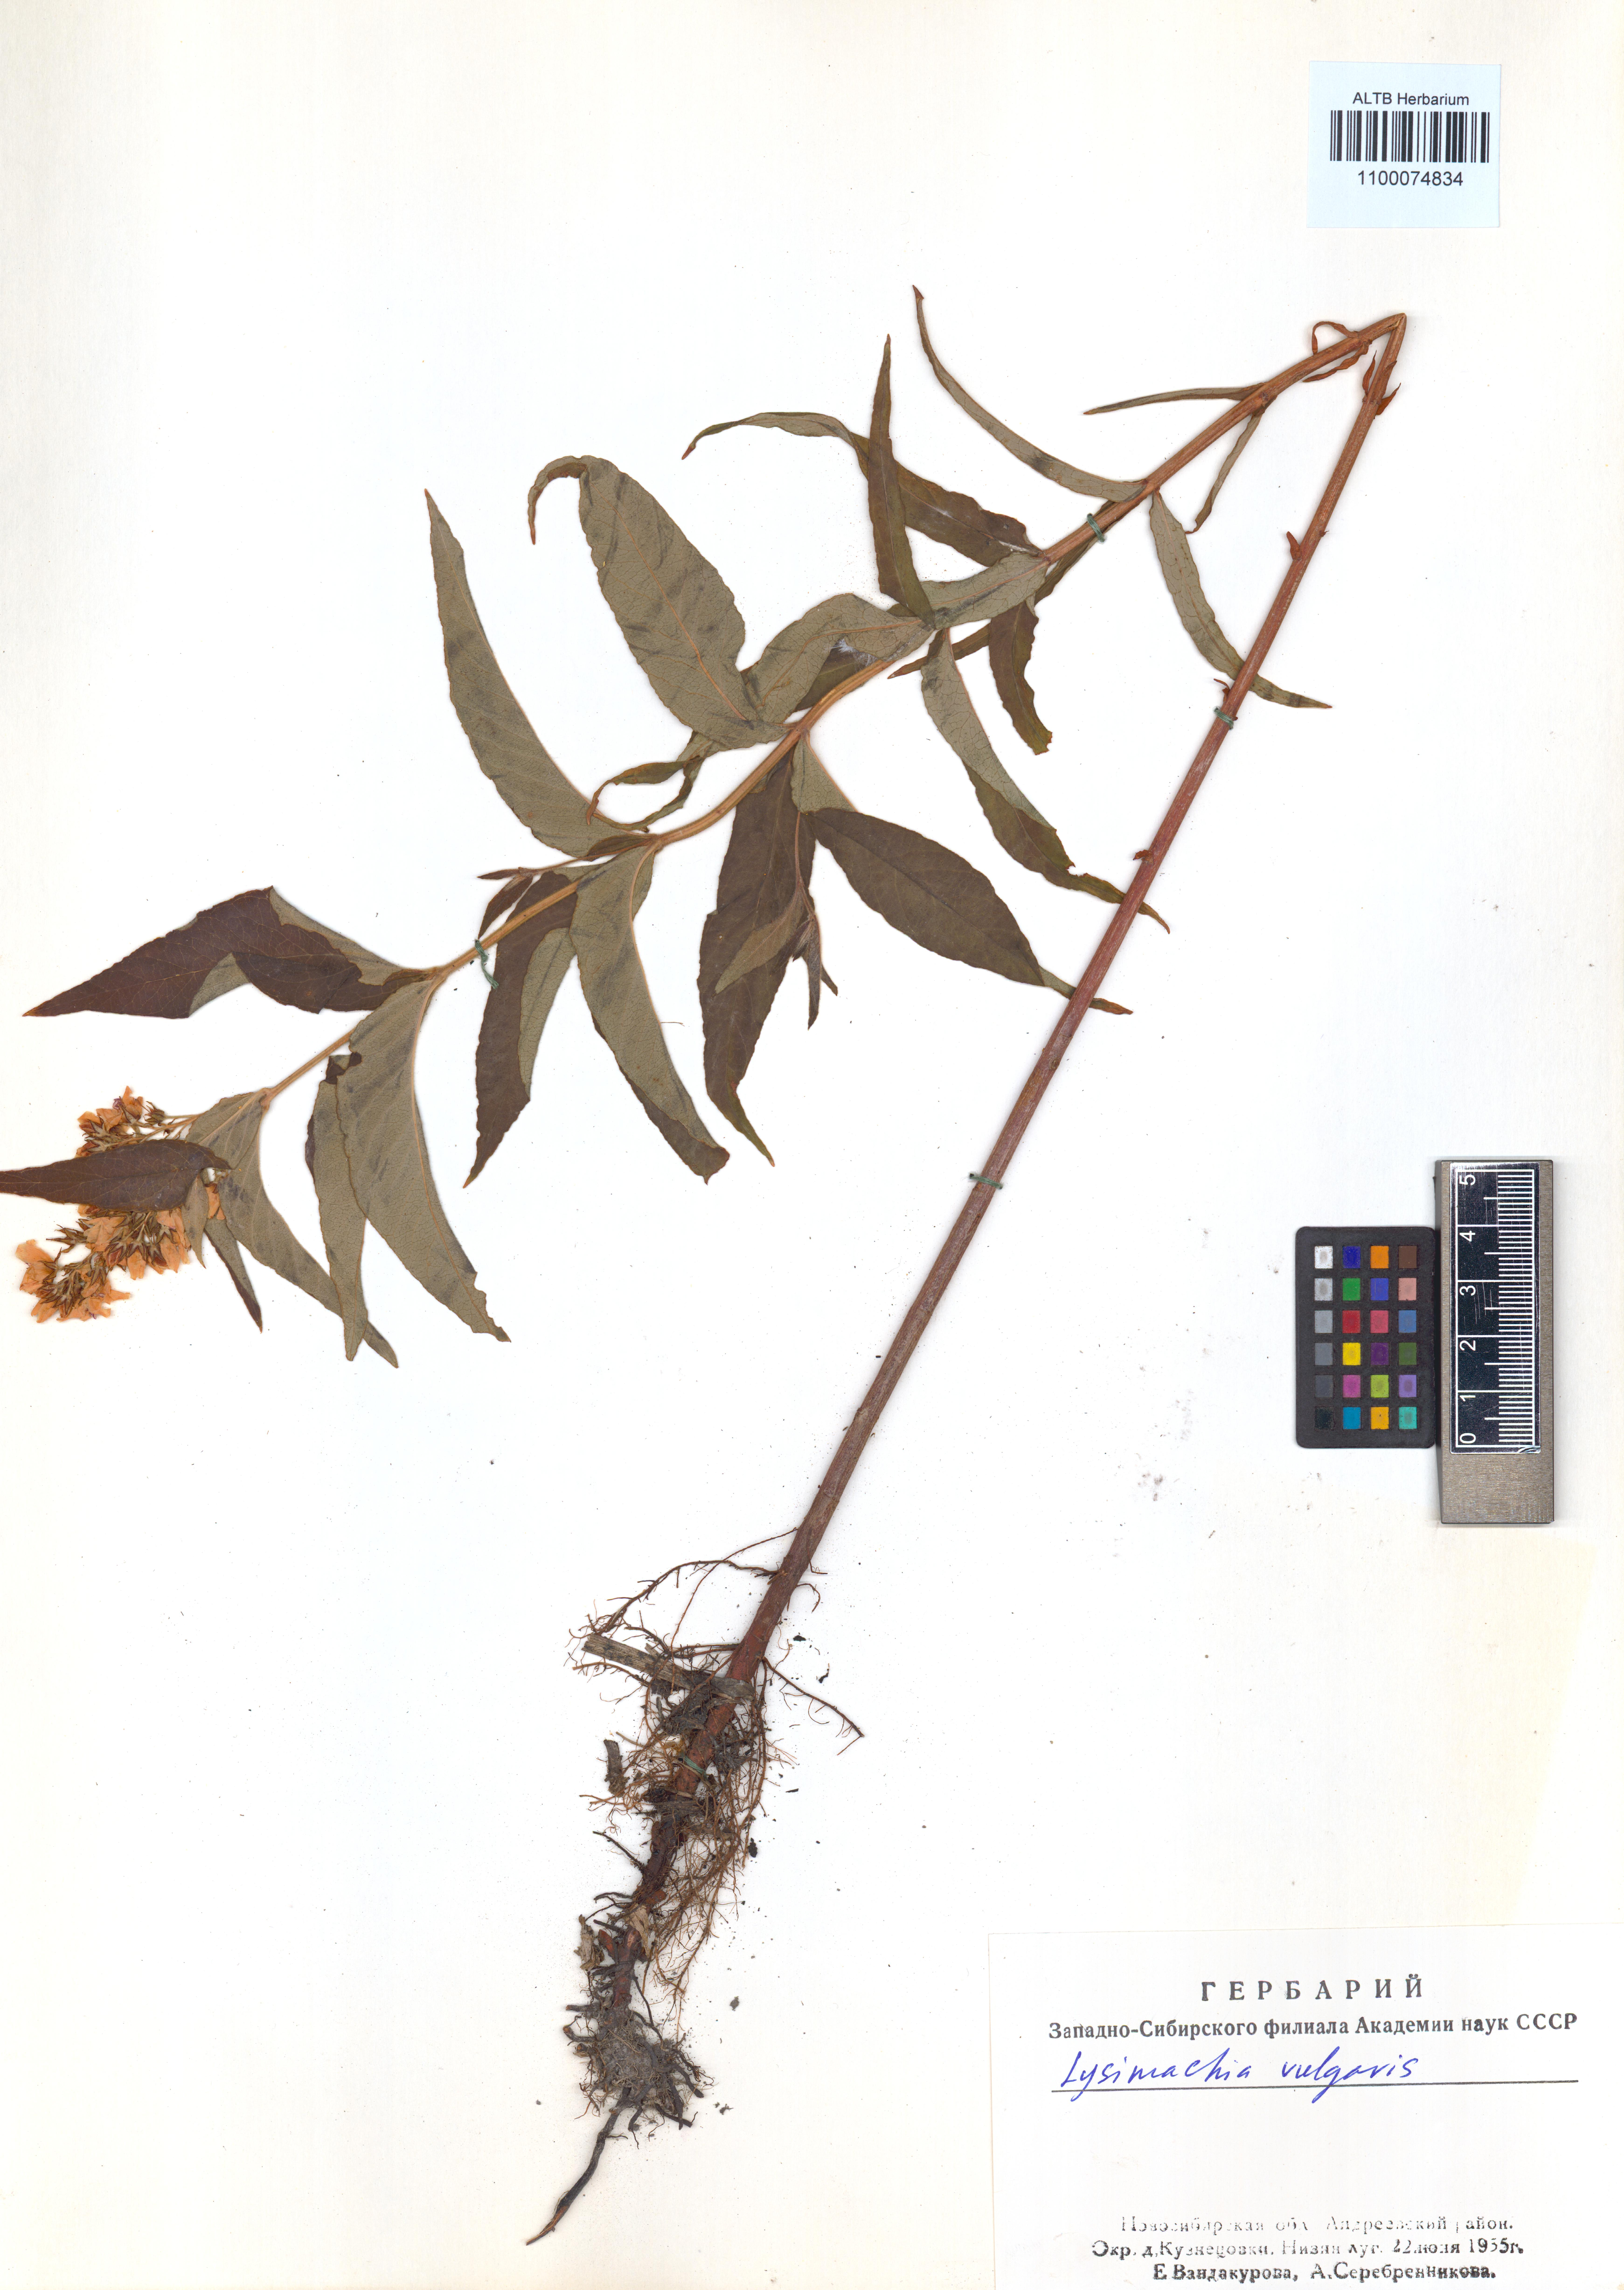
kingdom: Plantae
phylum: Tracheophyta
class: Magnoliopsida
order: Ericales
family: Primulaceae
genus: Lysimachia
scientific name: Lysimachia vulgaris
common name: Yellow loosestrife
